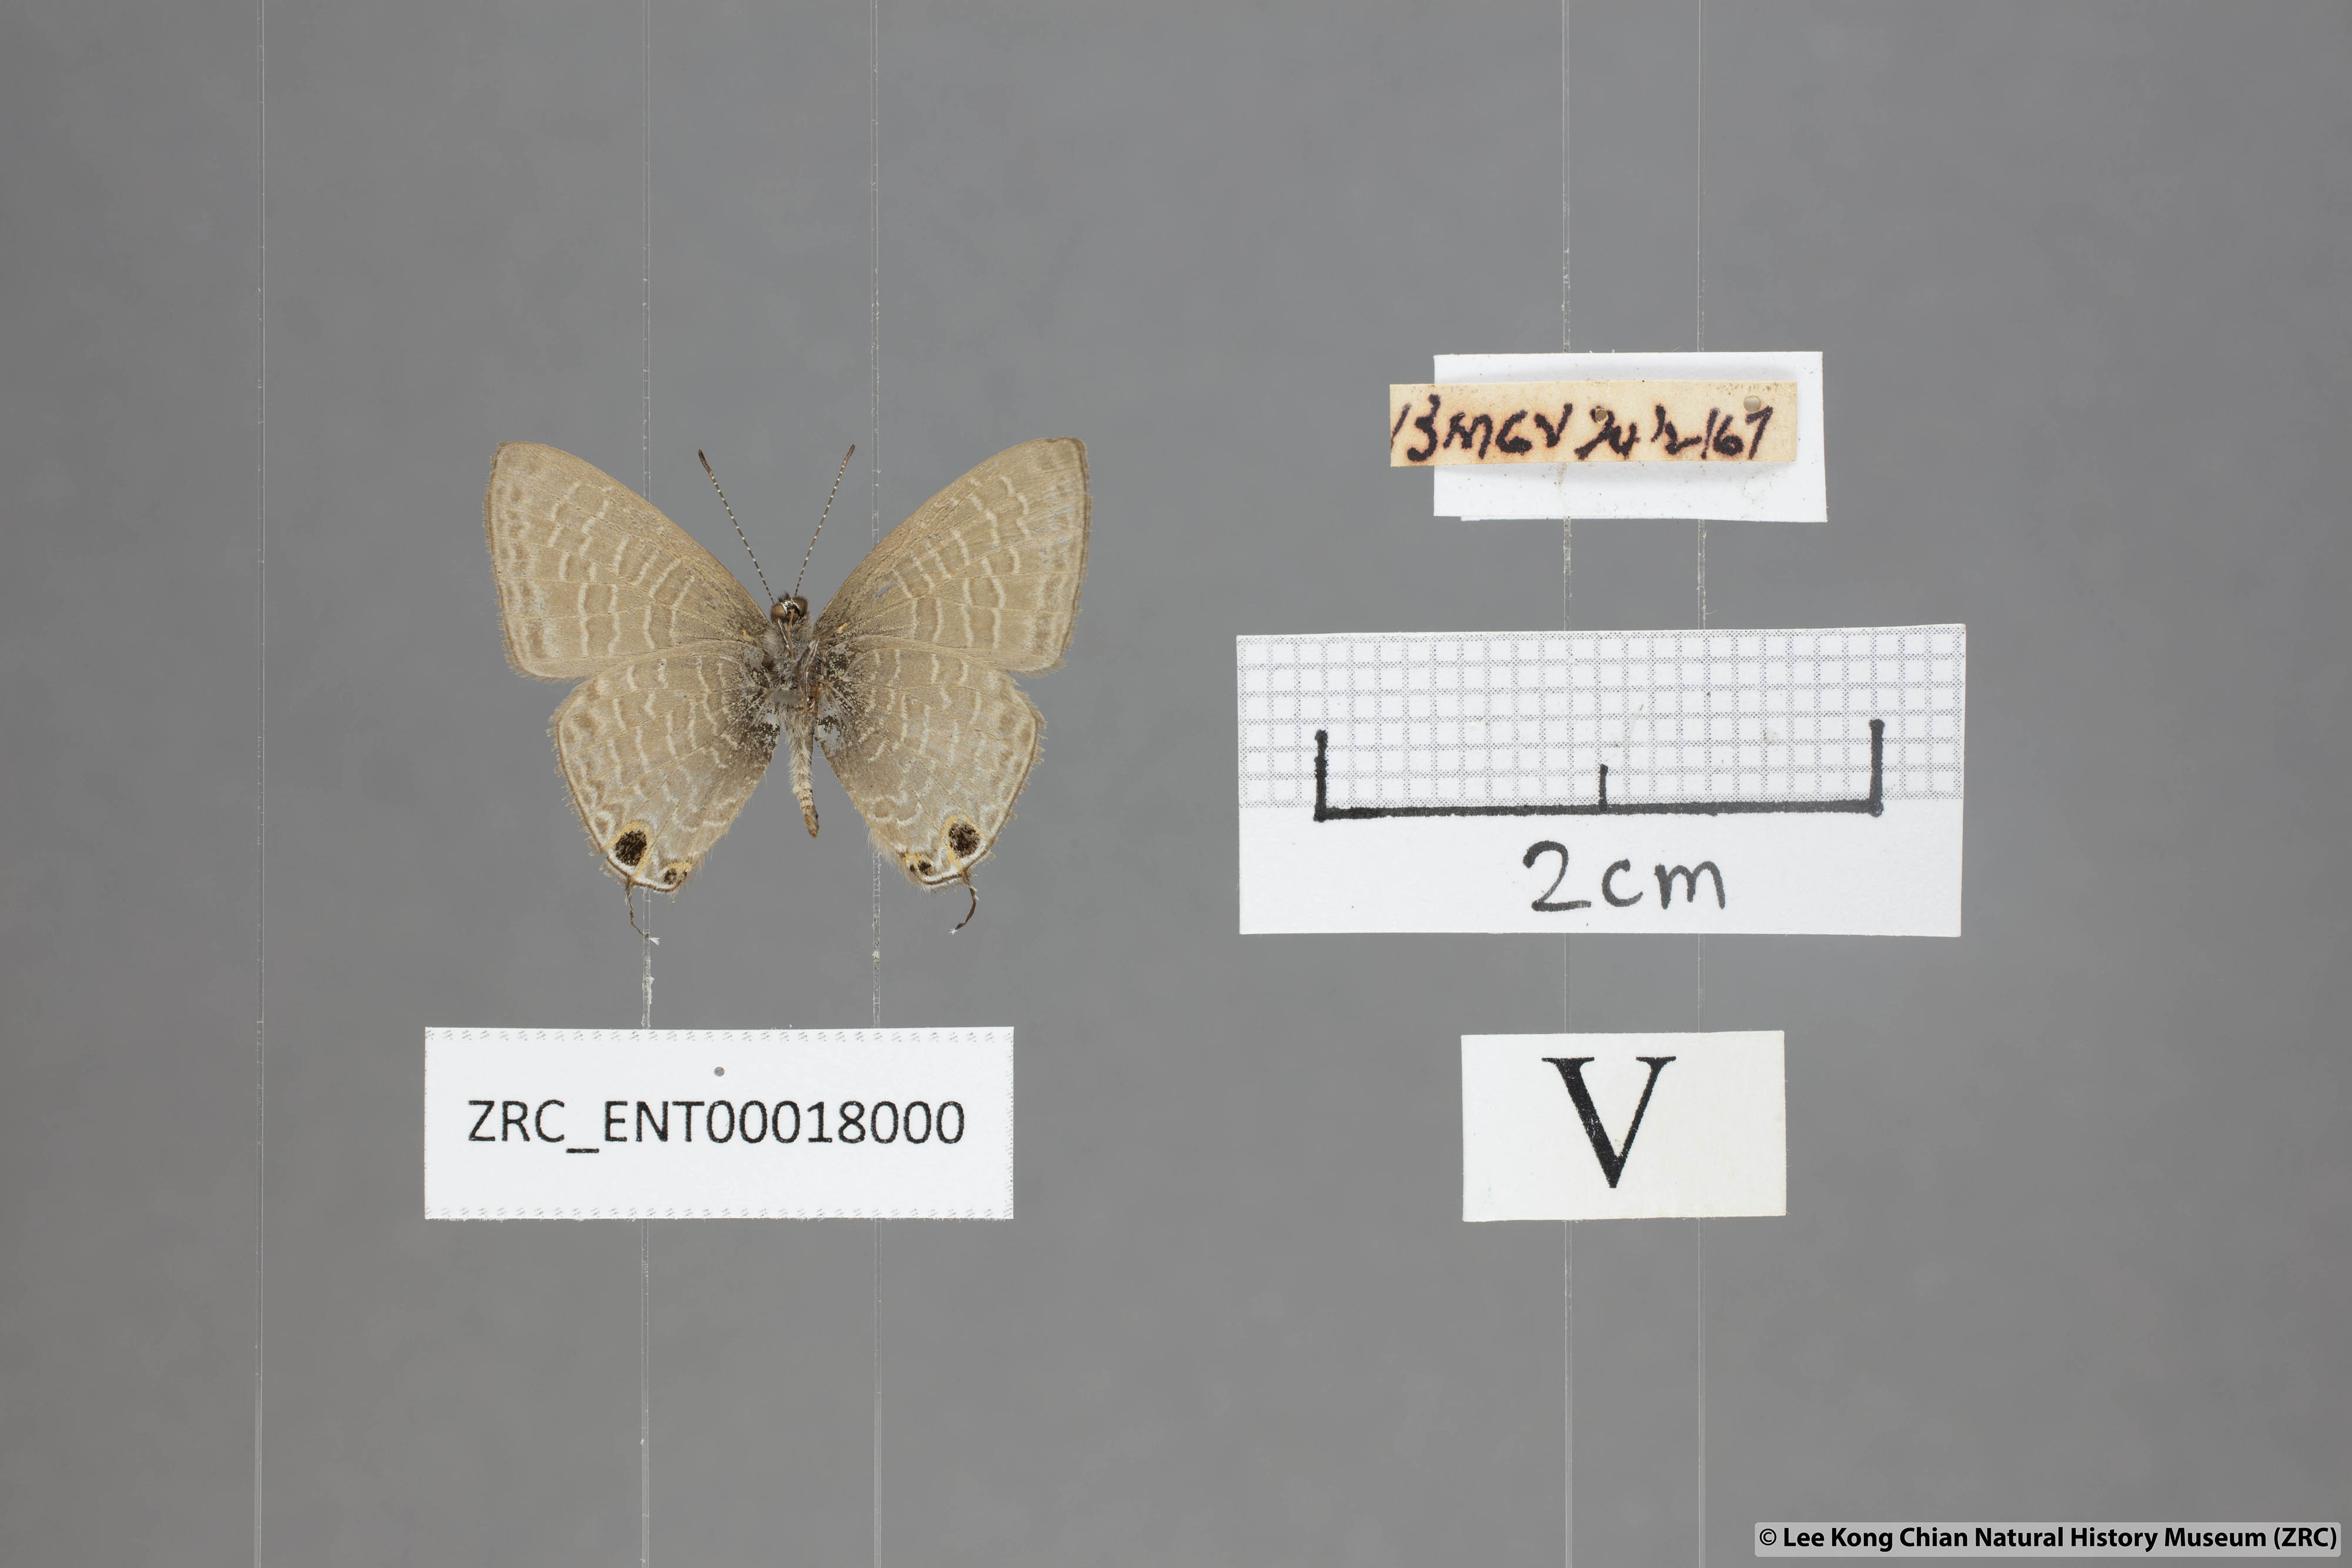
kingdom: Animalia
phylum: Arthropoda
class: Insecta
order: Lepidoptera
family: Lycaenidae
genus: Ionolyce
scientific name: Ionolyce helicon
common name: Pointed line blue
